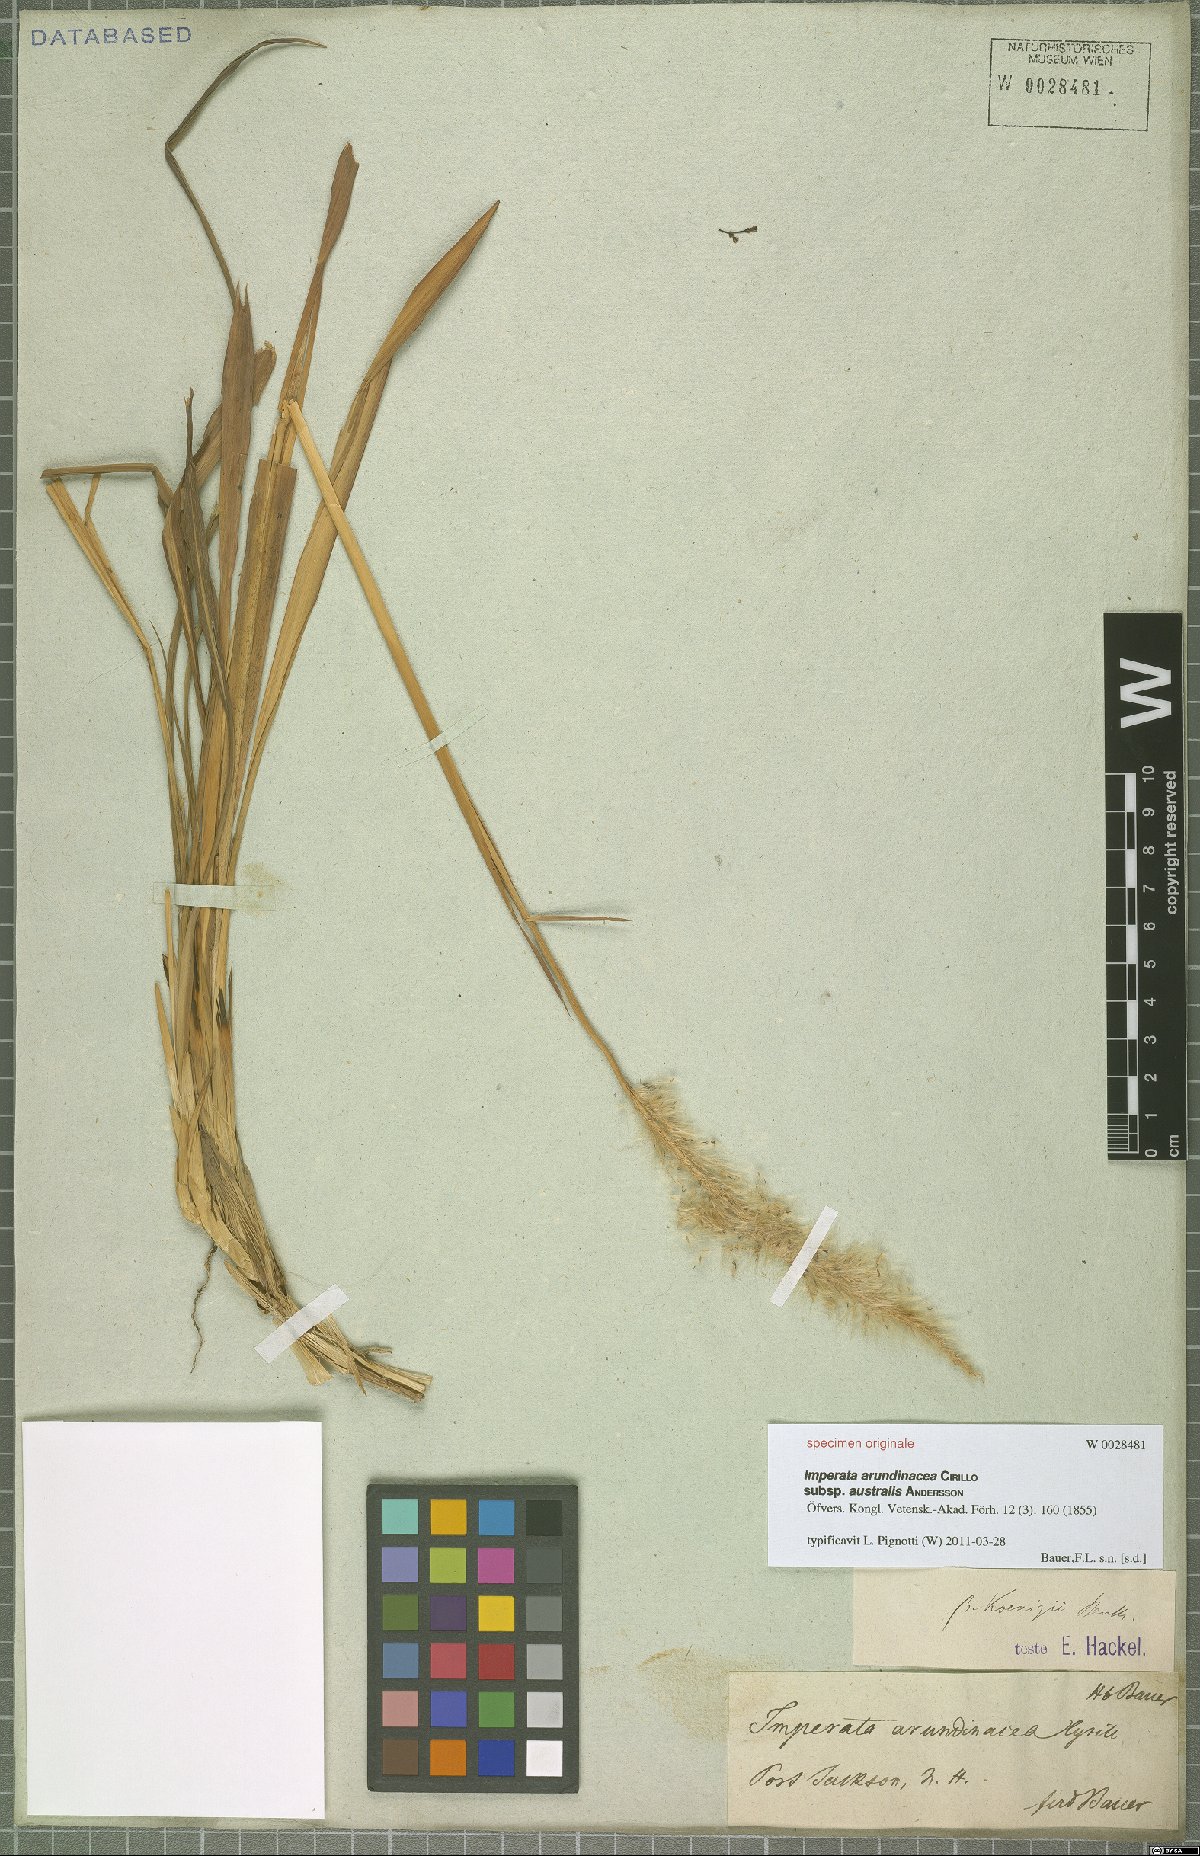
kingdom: Plantae
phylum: Tracheophyta
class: Liliopsida
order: Poales
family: Poaceae
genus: Imperata
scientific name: Imperata cylindrica
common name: Cogongrass
